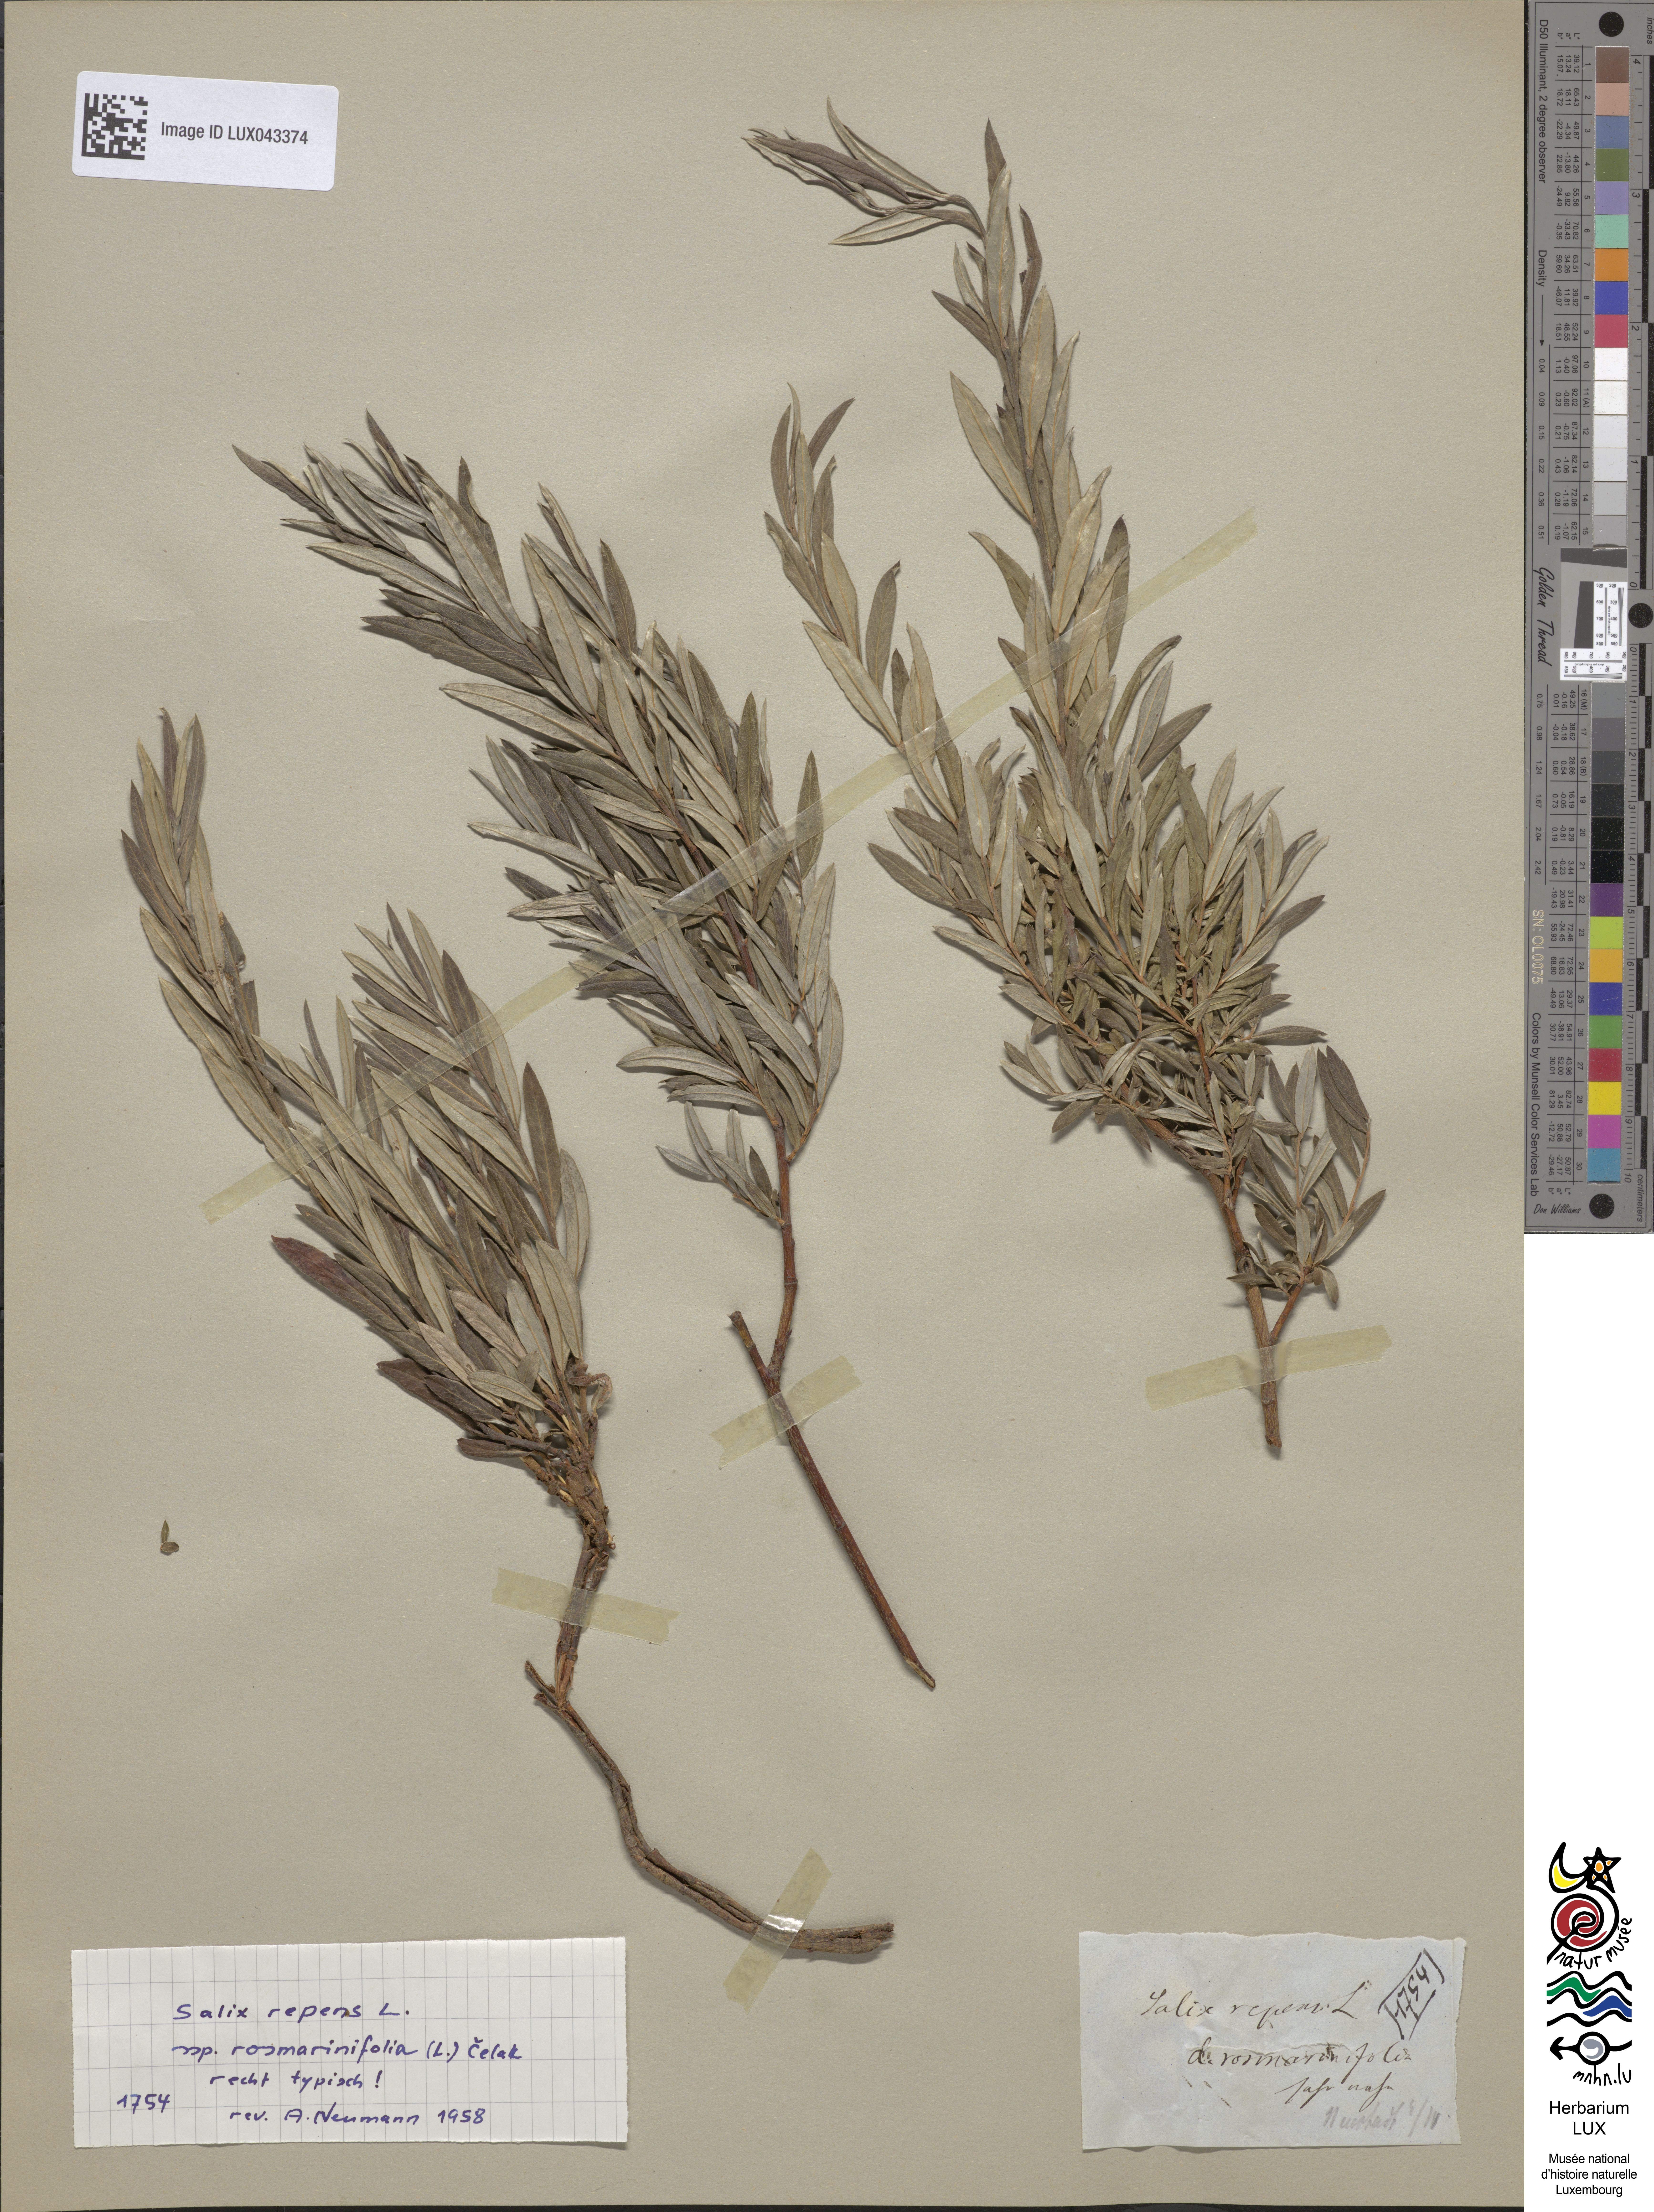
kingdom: Plantae
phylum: Tracheophyta
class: Magnoliopsida
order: Malpighiales
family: Salicaceae
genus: Salix
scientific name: Salix rosmarinifolia
